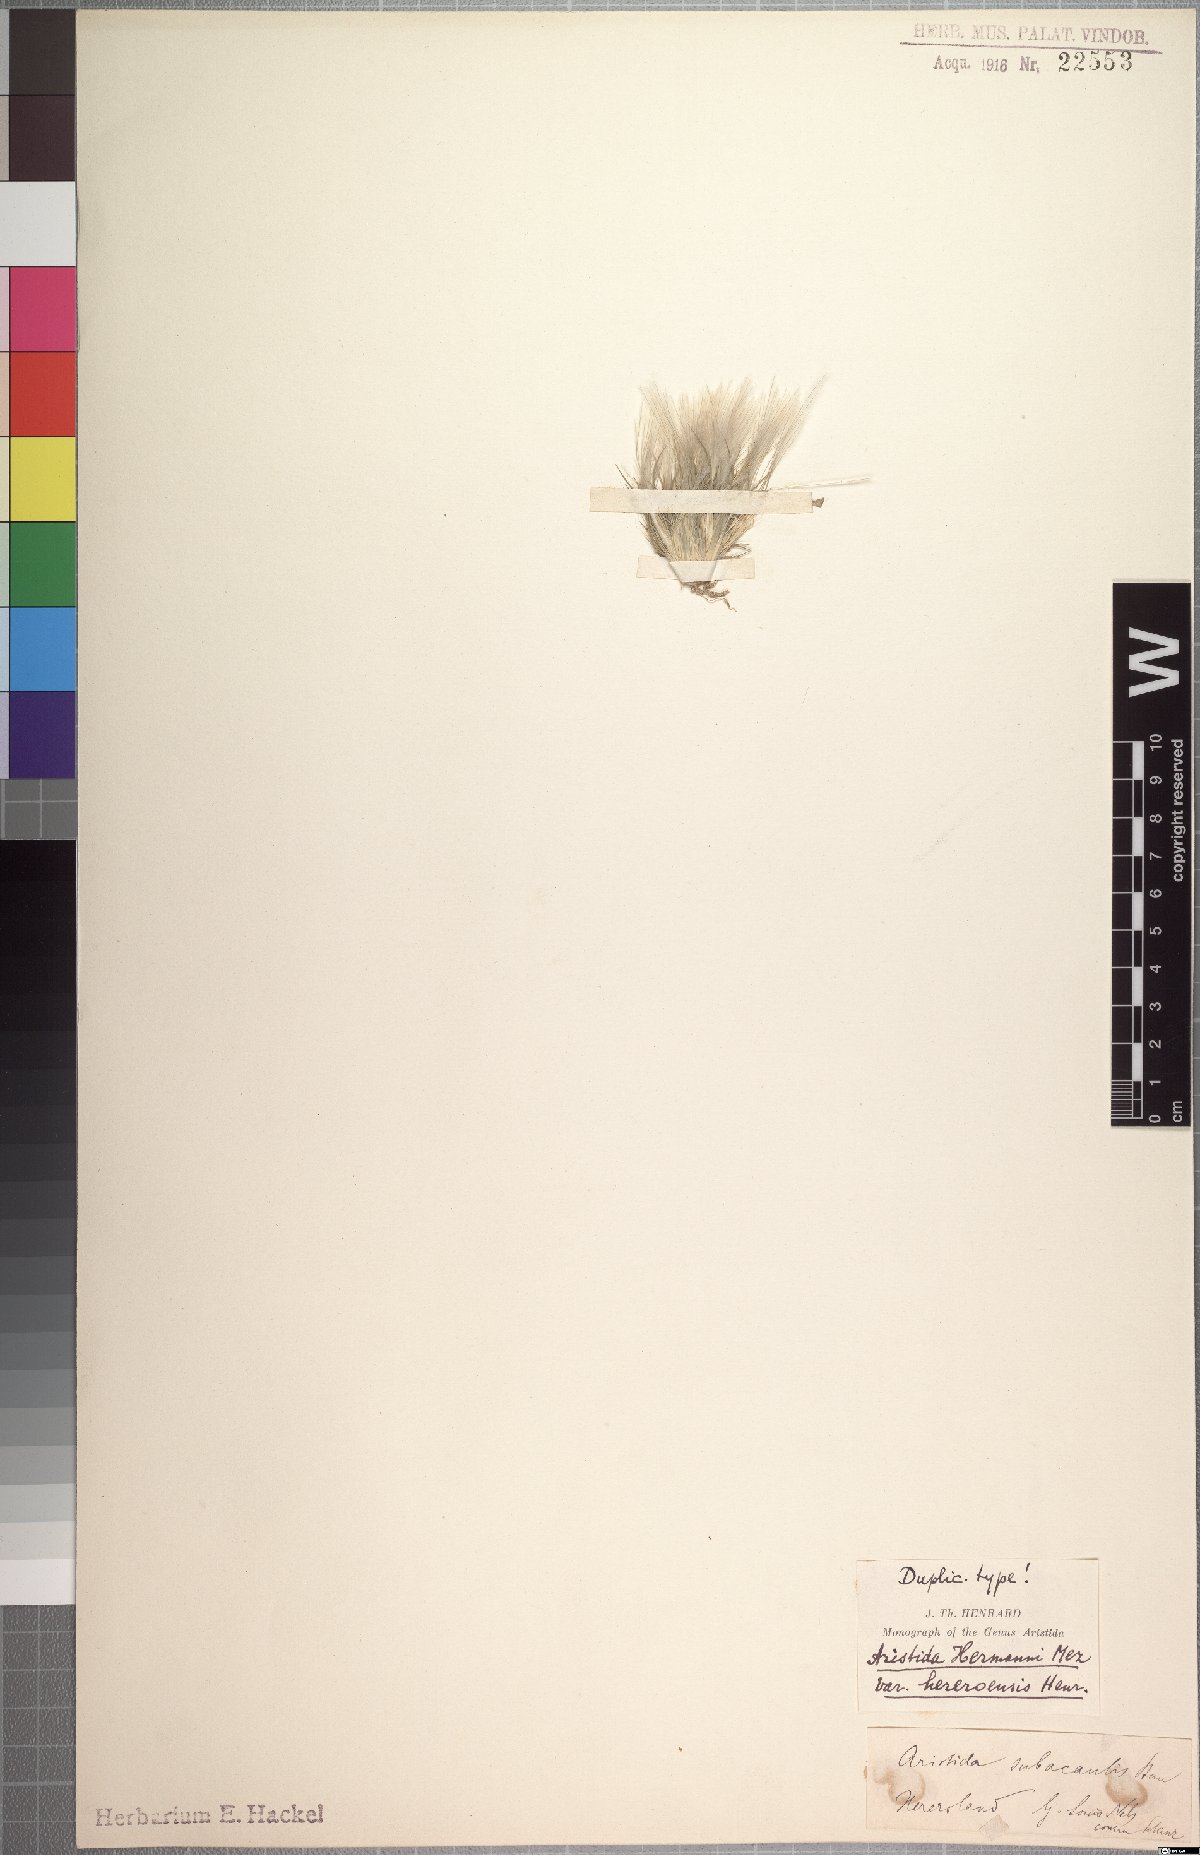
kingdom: Plantae
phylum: Tracheophyta
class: Liliopsida
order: Poales
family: Poaceae
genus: Stipagrostis
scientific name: Stipagrostis hermannii
